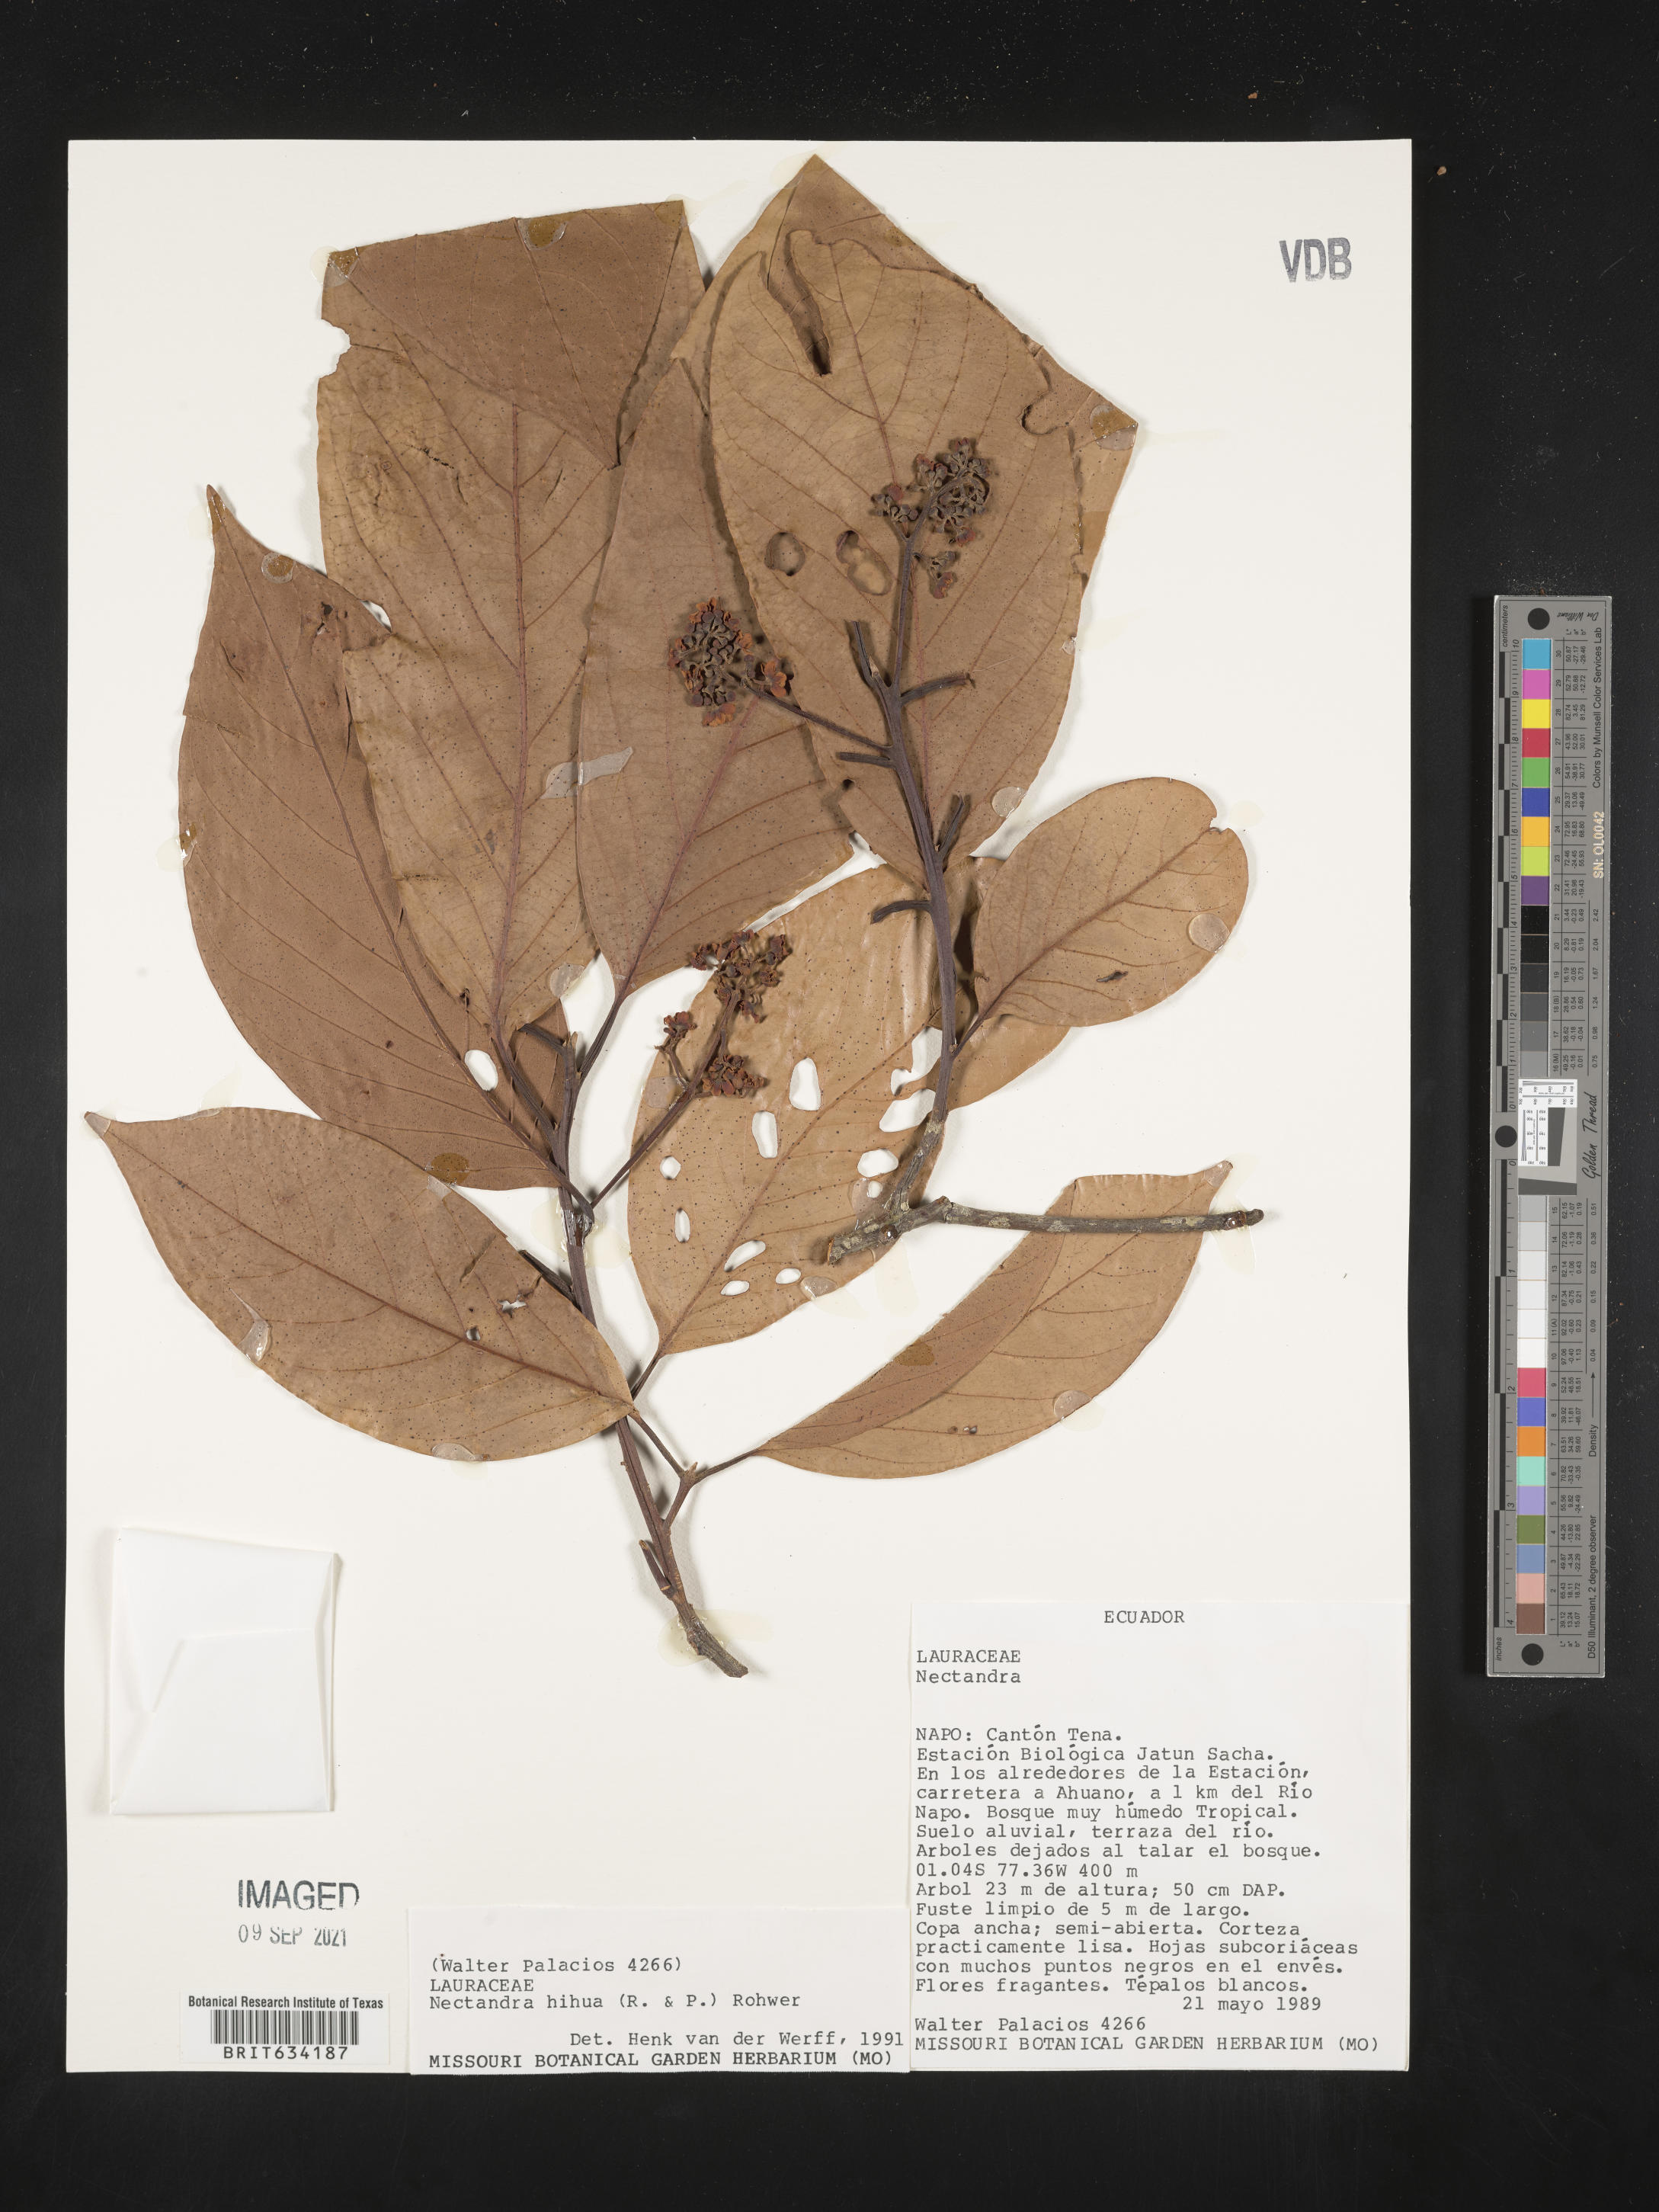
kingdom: Plantae
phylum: Tracheophyta
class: Magnoliopsida
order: Laurales
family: Lauraceae
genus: Nectandra
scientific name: Nectandra
